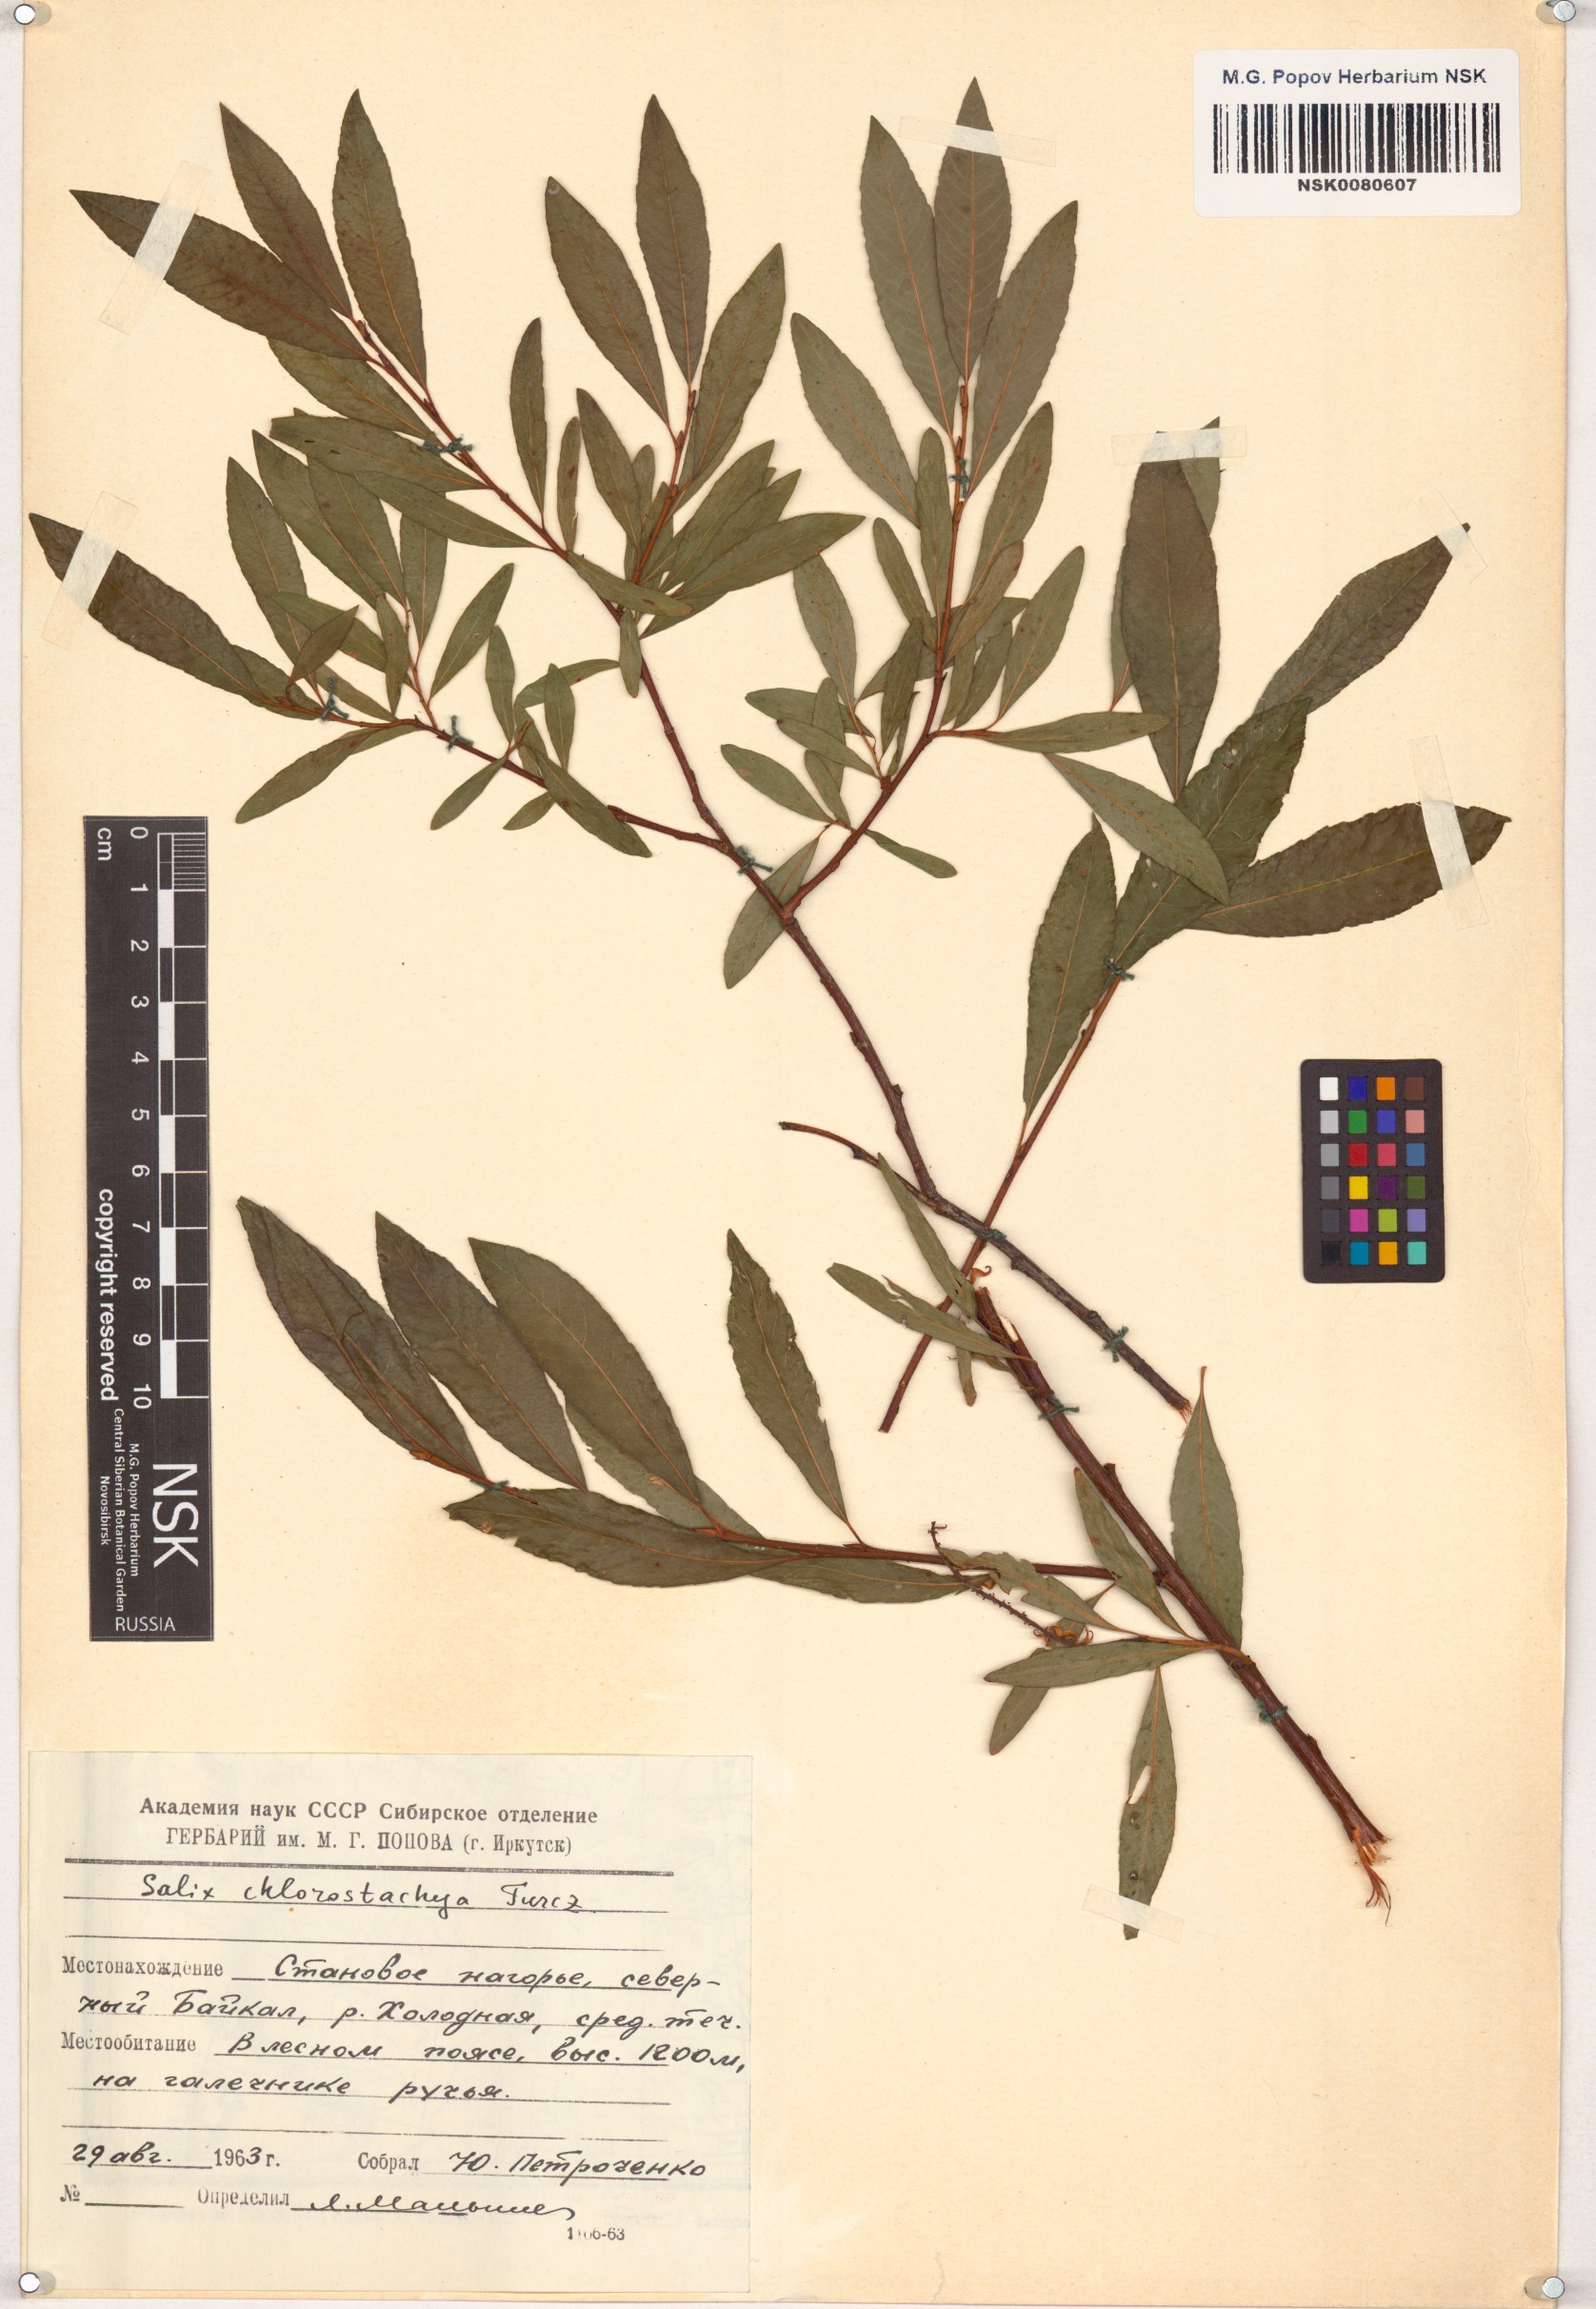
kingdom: Plantae
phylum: Tracheophyta
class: Magnoliopsida
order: Malpighiales
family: Salicaceae
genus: Salix
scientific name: Salix rhamnifolia
